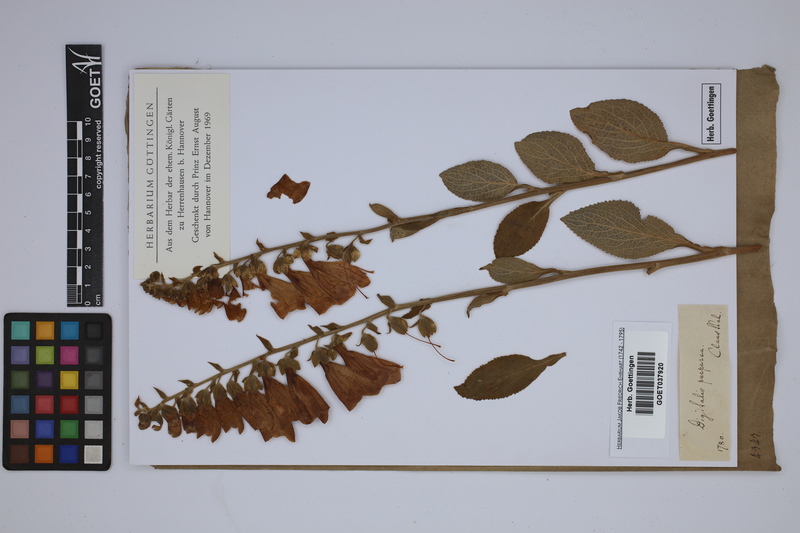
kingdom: Plantae
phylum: Tracheophyta
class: Magnoliopsida
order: Lamiales
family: Plantaginaceae
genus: Digitalis
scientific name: Digitalis purpurea
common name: Foxglove
